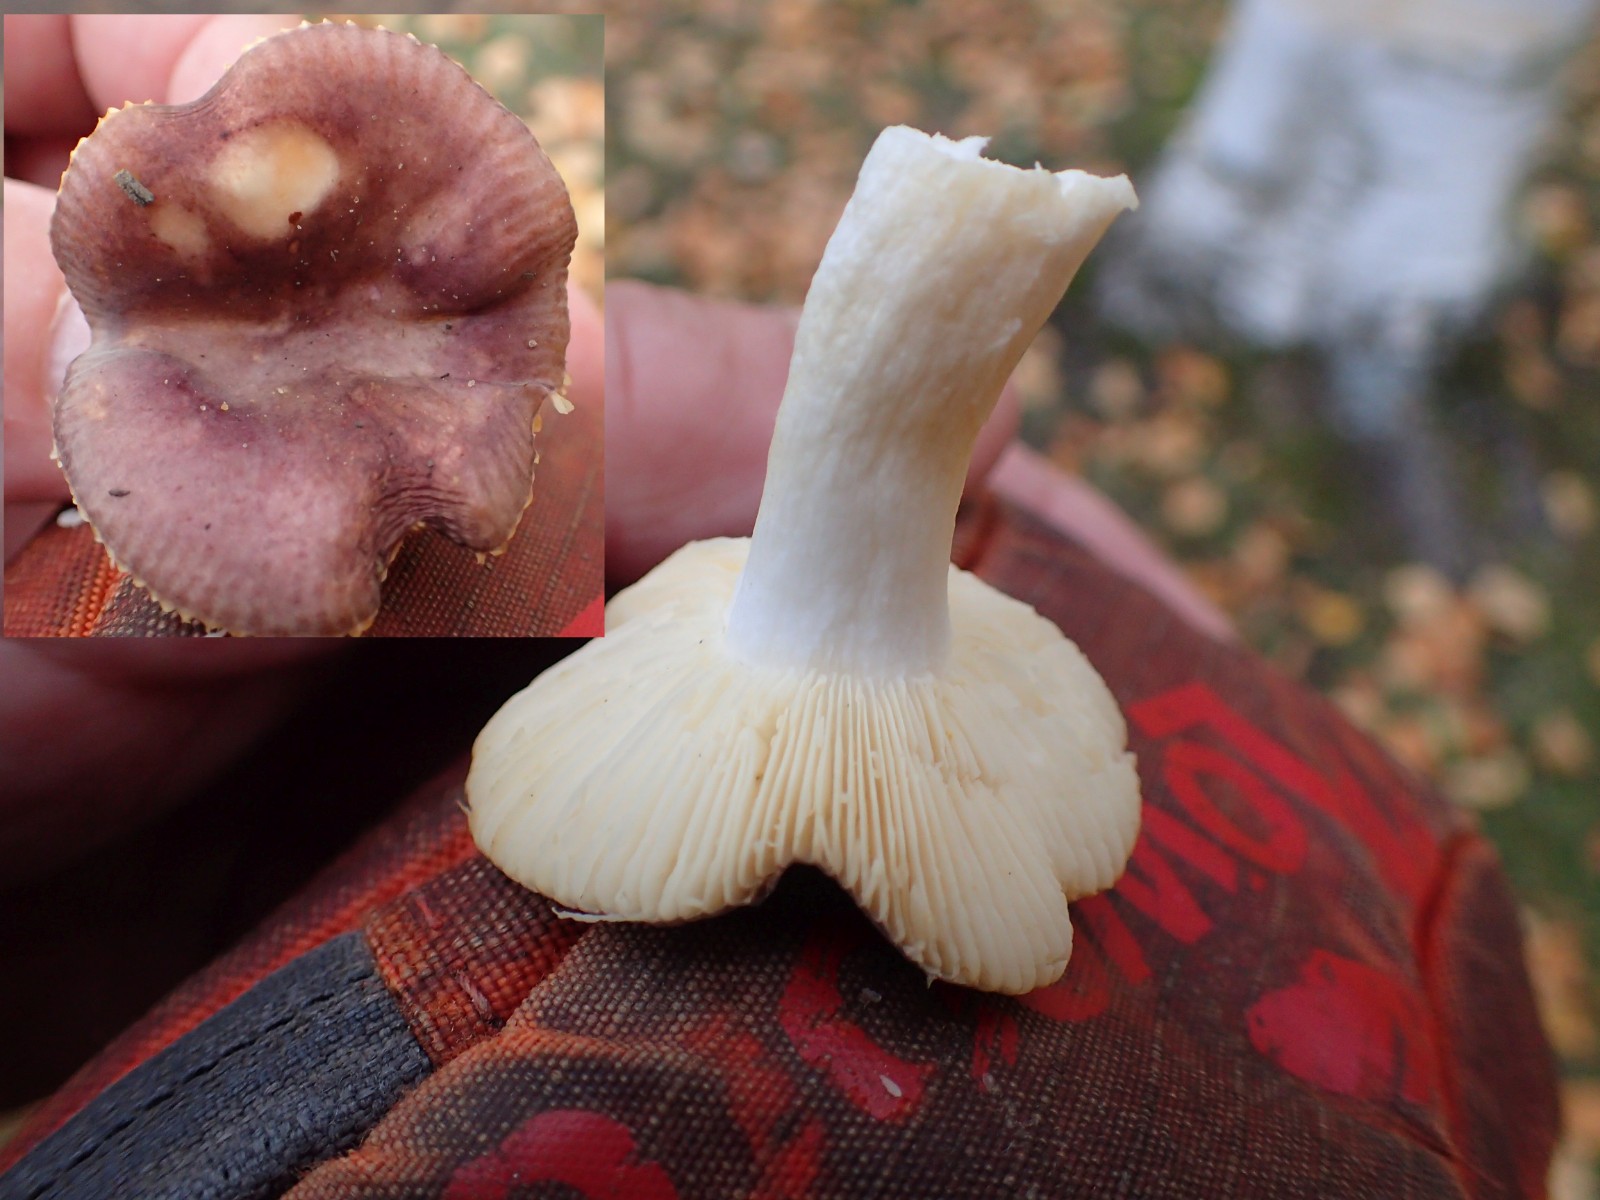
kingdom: Fungi
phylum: Basidiomycota
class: Agaricomycetes
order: Russulales
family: Russulaceae
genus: Russula
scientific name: Russula versicolor
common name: foranderlig skørhat
